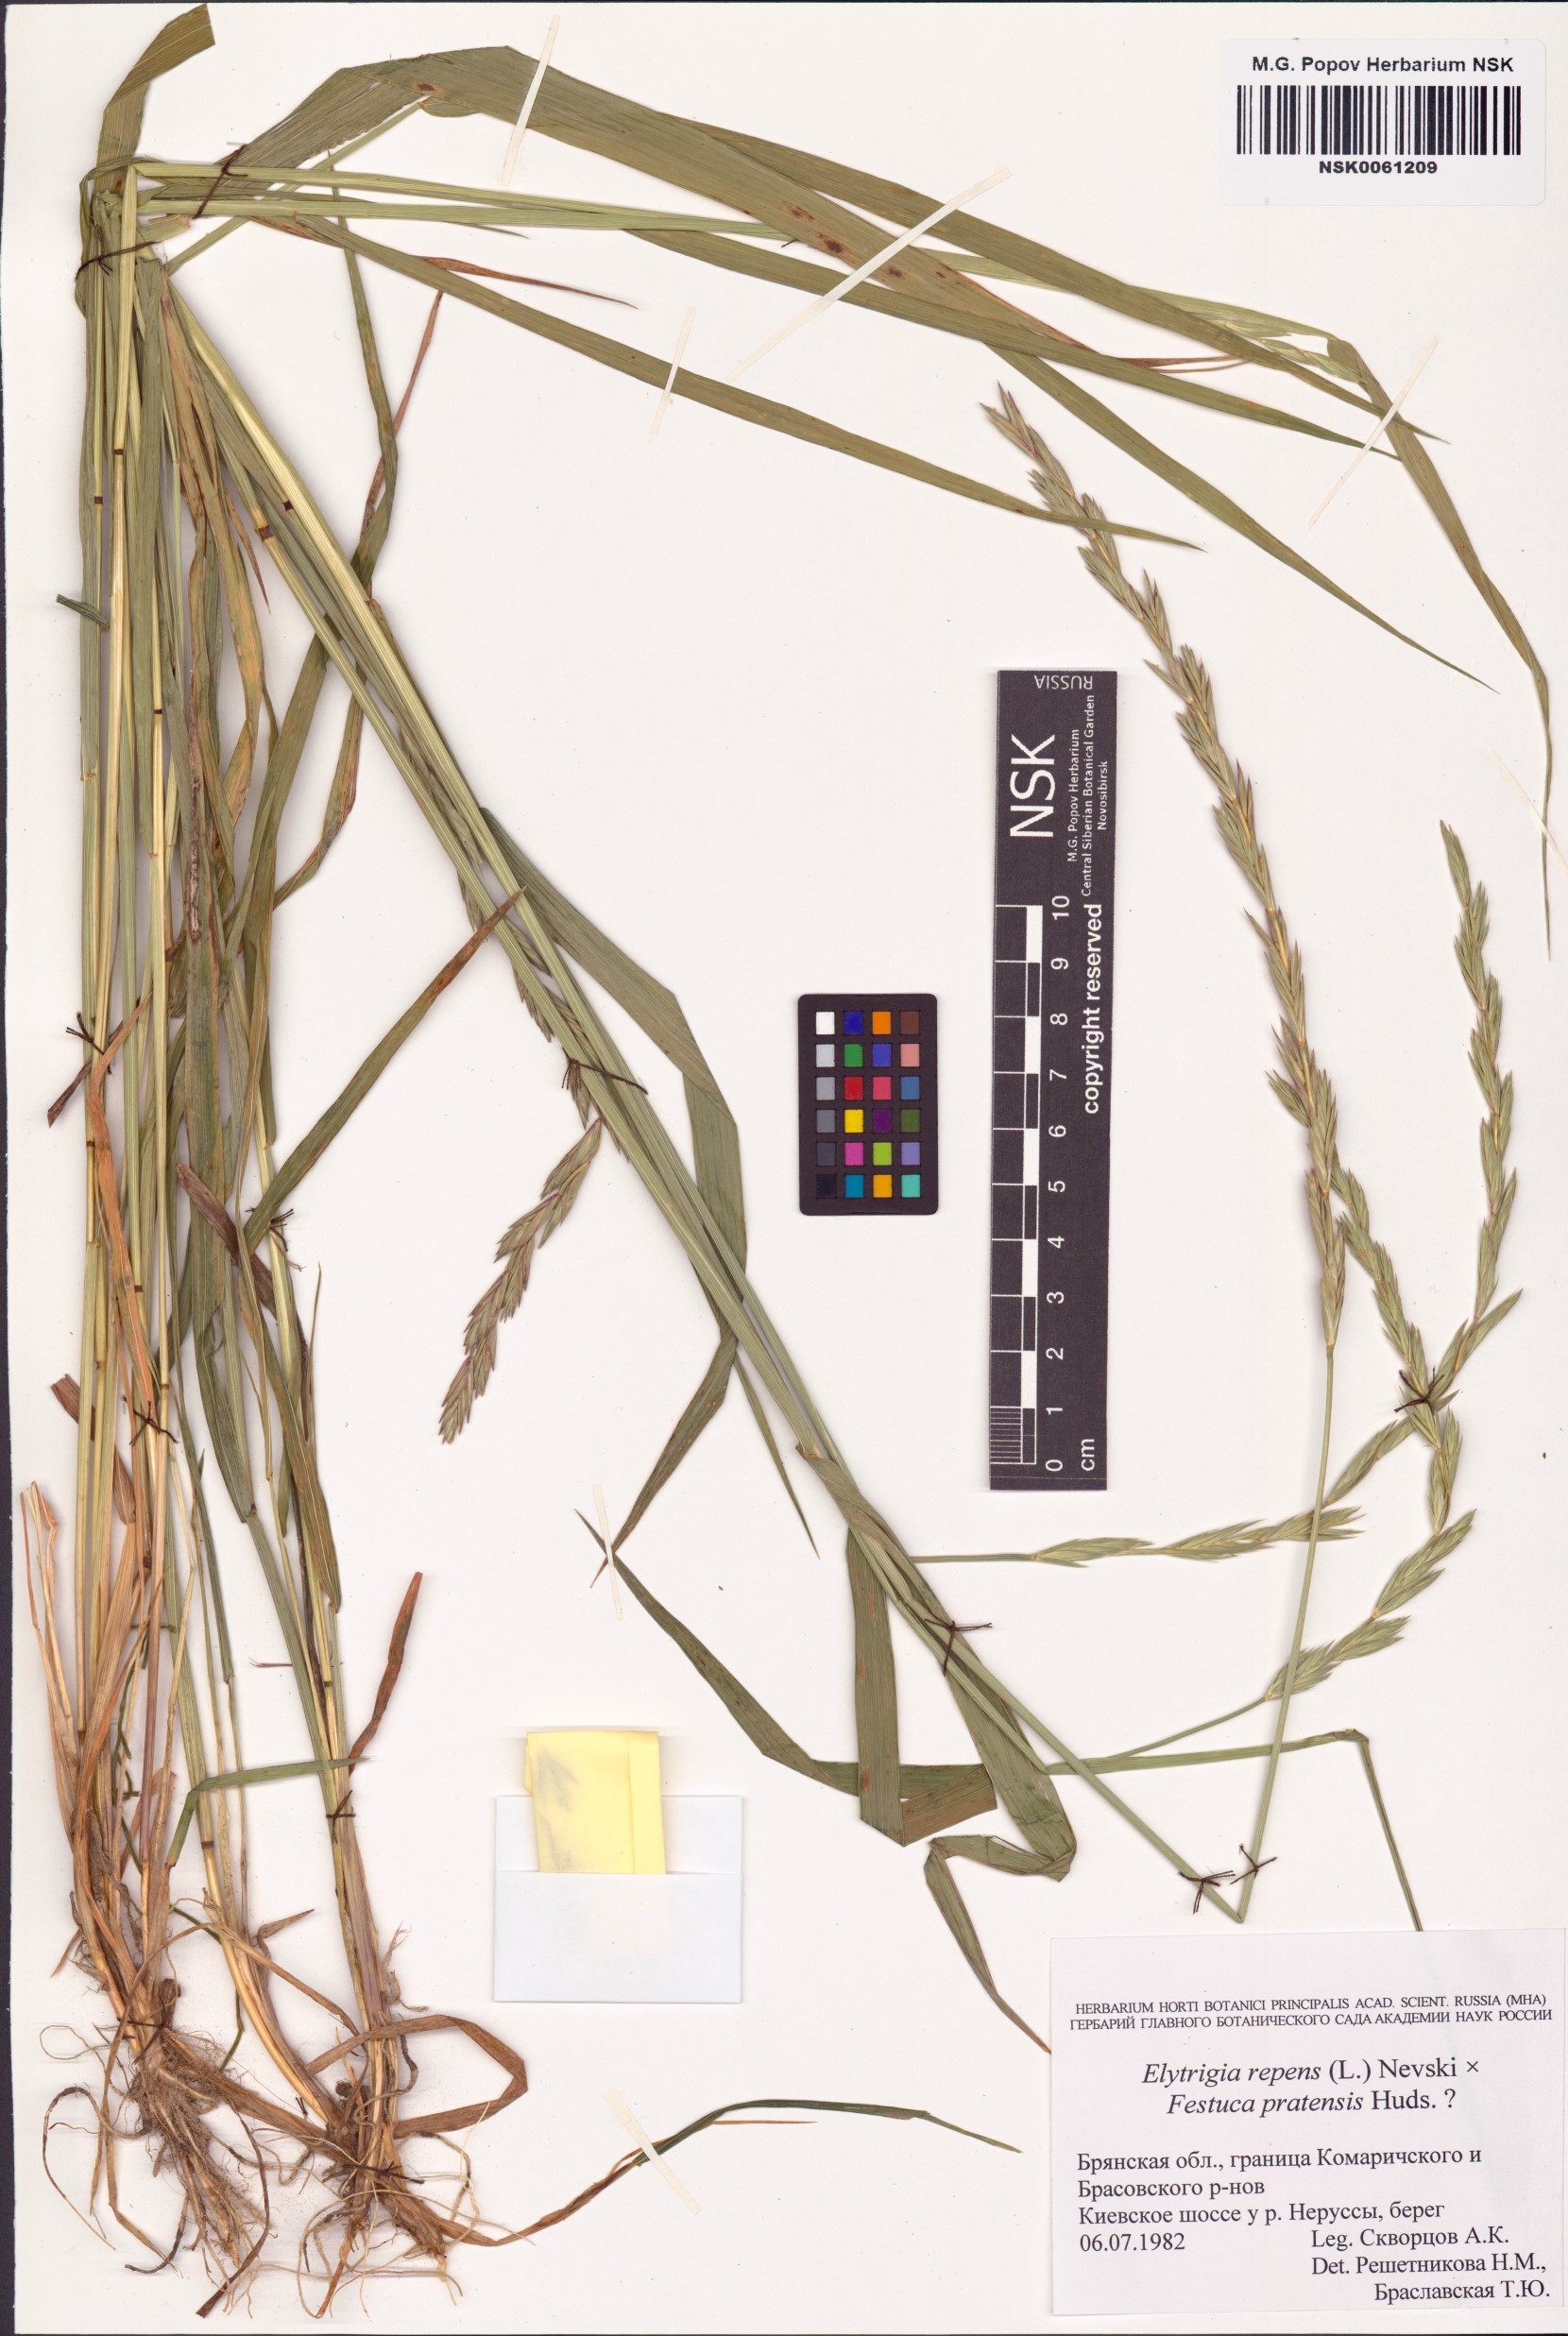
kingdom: Plantae
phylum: Tracheophyta
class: Liliopsida
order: Poales
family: Poaceae
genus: Elymus
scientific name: Elymus repens
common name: Quackgrass
